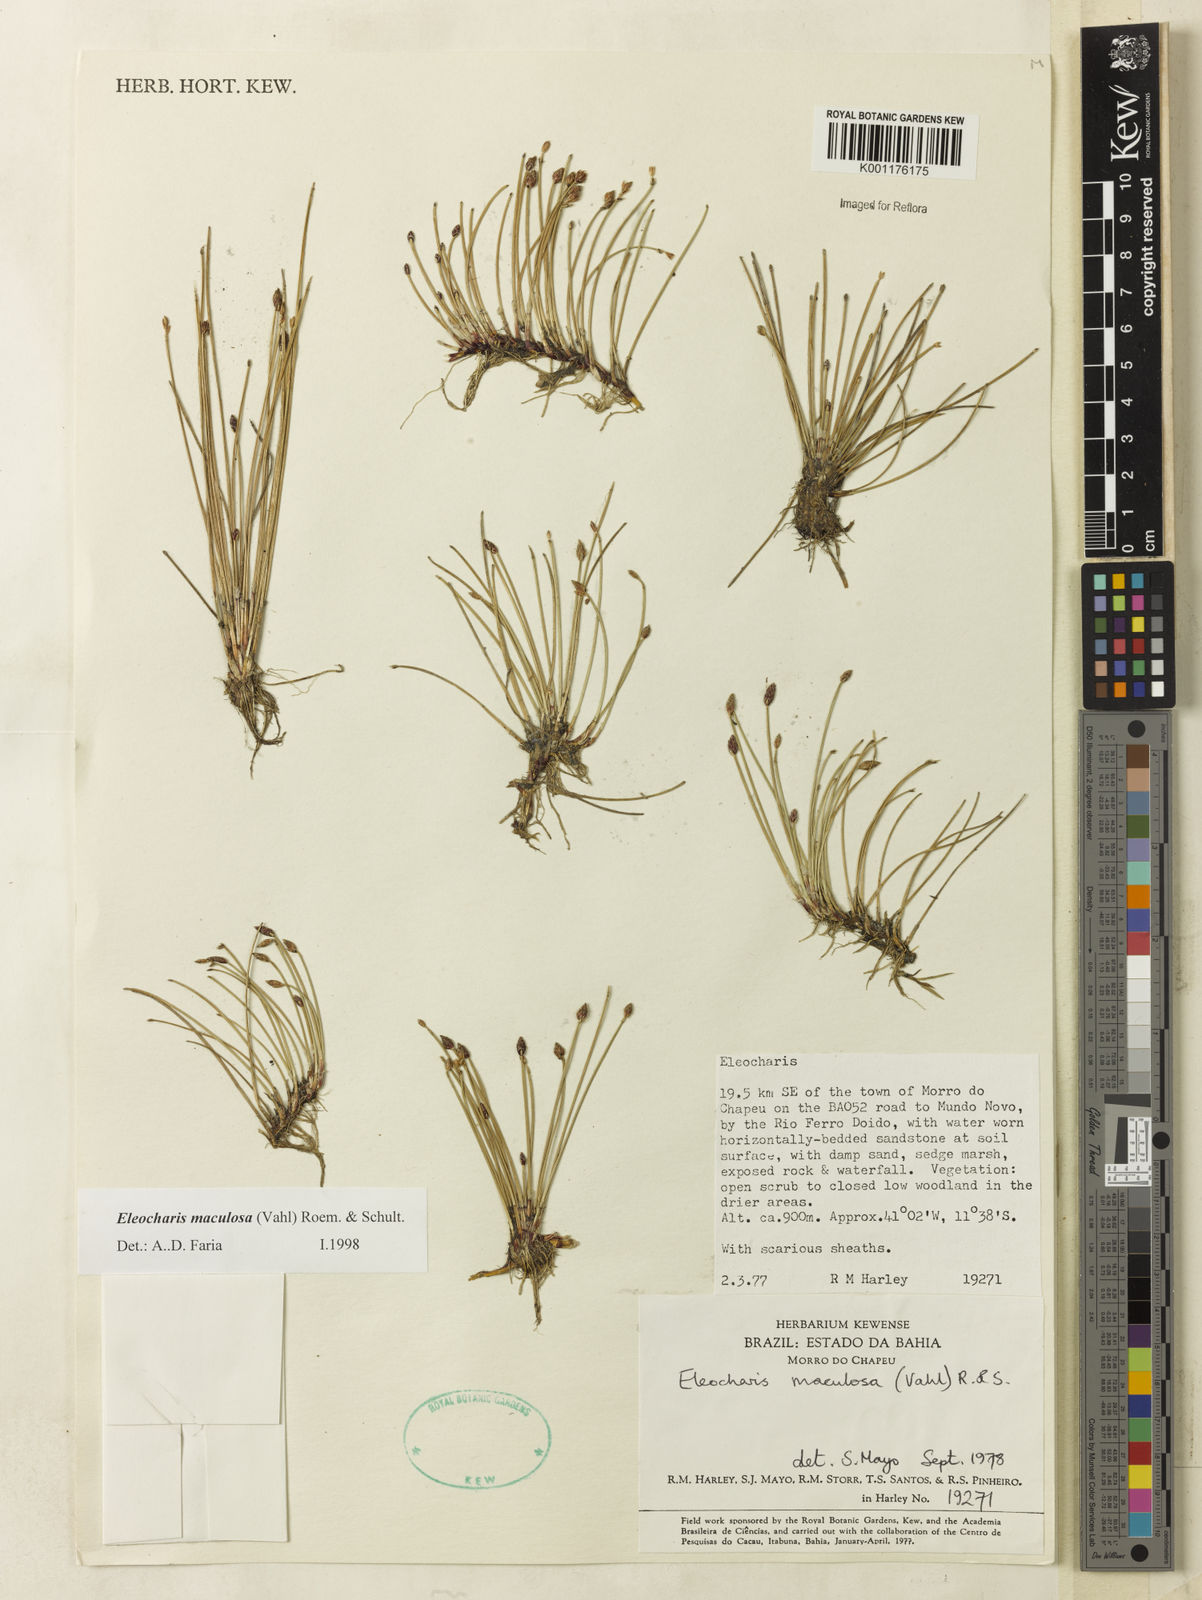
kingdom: Plantae
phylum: Tracheophyta
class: Liliopsida
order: Poales
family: Cyperaceae
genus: Eleocharis
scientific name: Eleocharis maculosa
